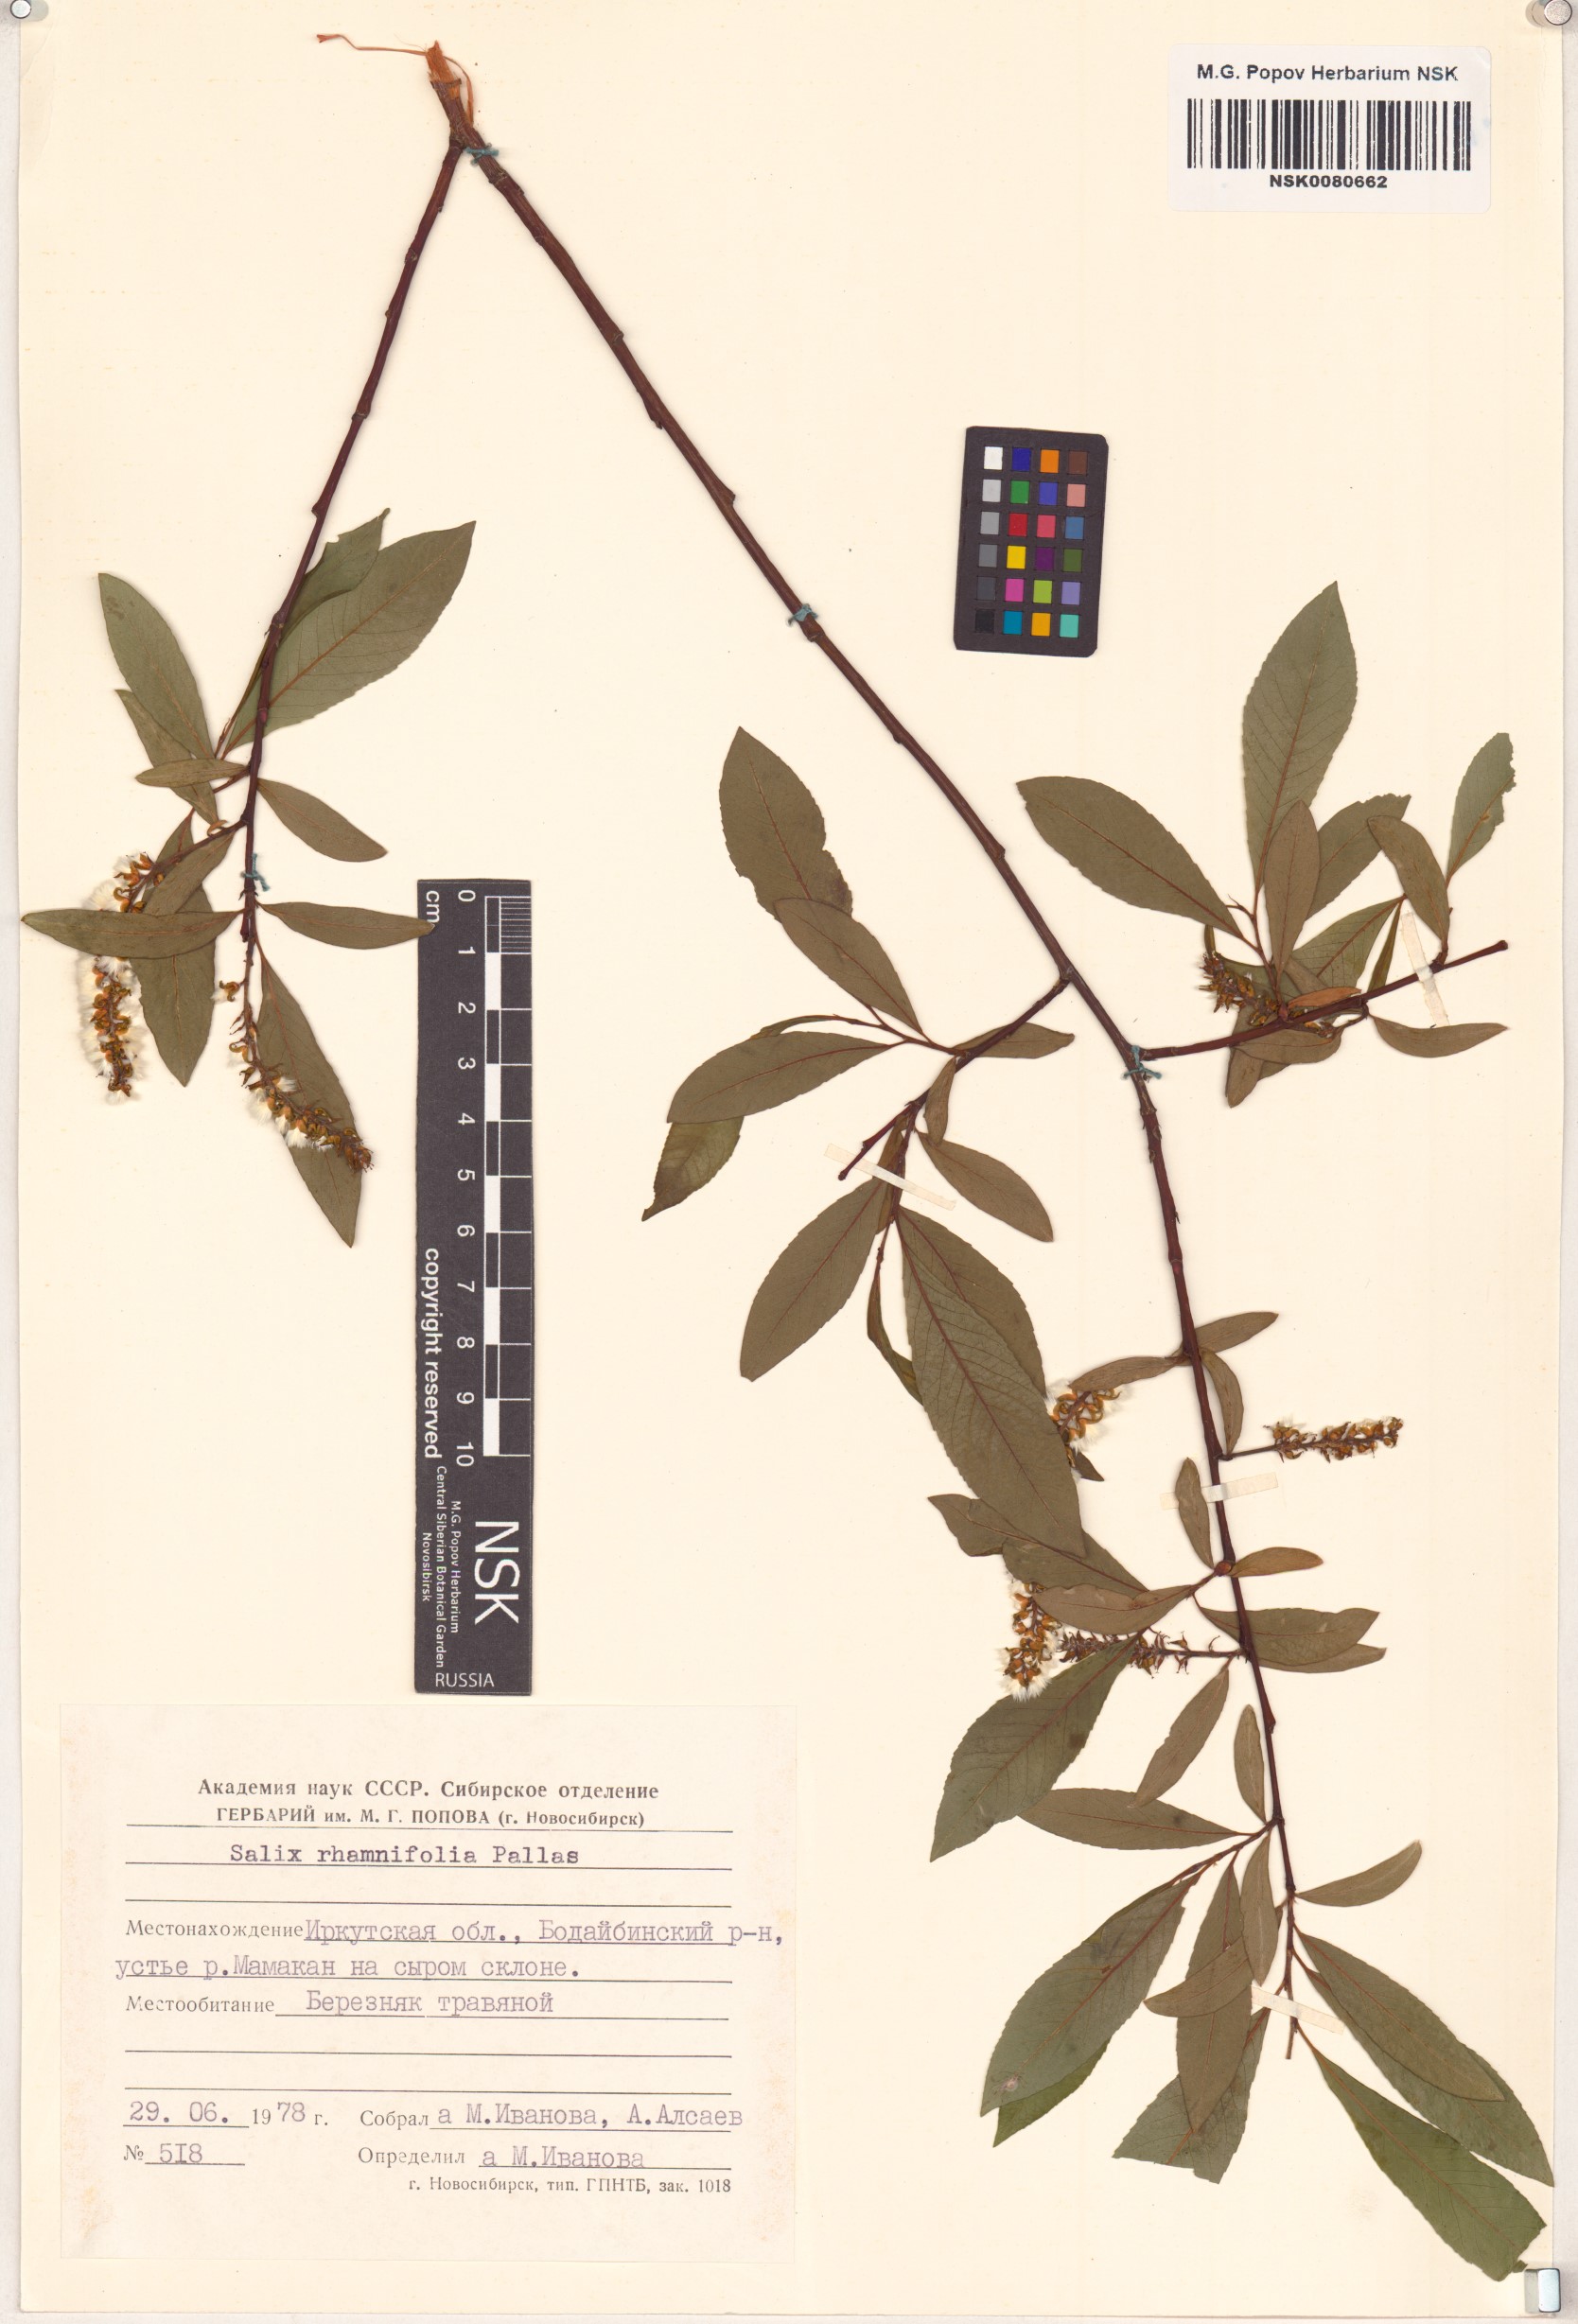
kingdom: Plantae
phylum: Tracheophyta
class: Magnoliopsida
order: Malpighiales
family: Salicaceae
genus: Salix
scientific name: Salix rhamnifolia
